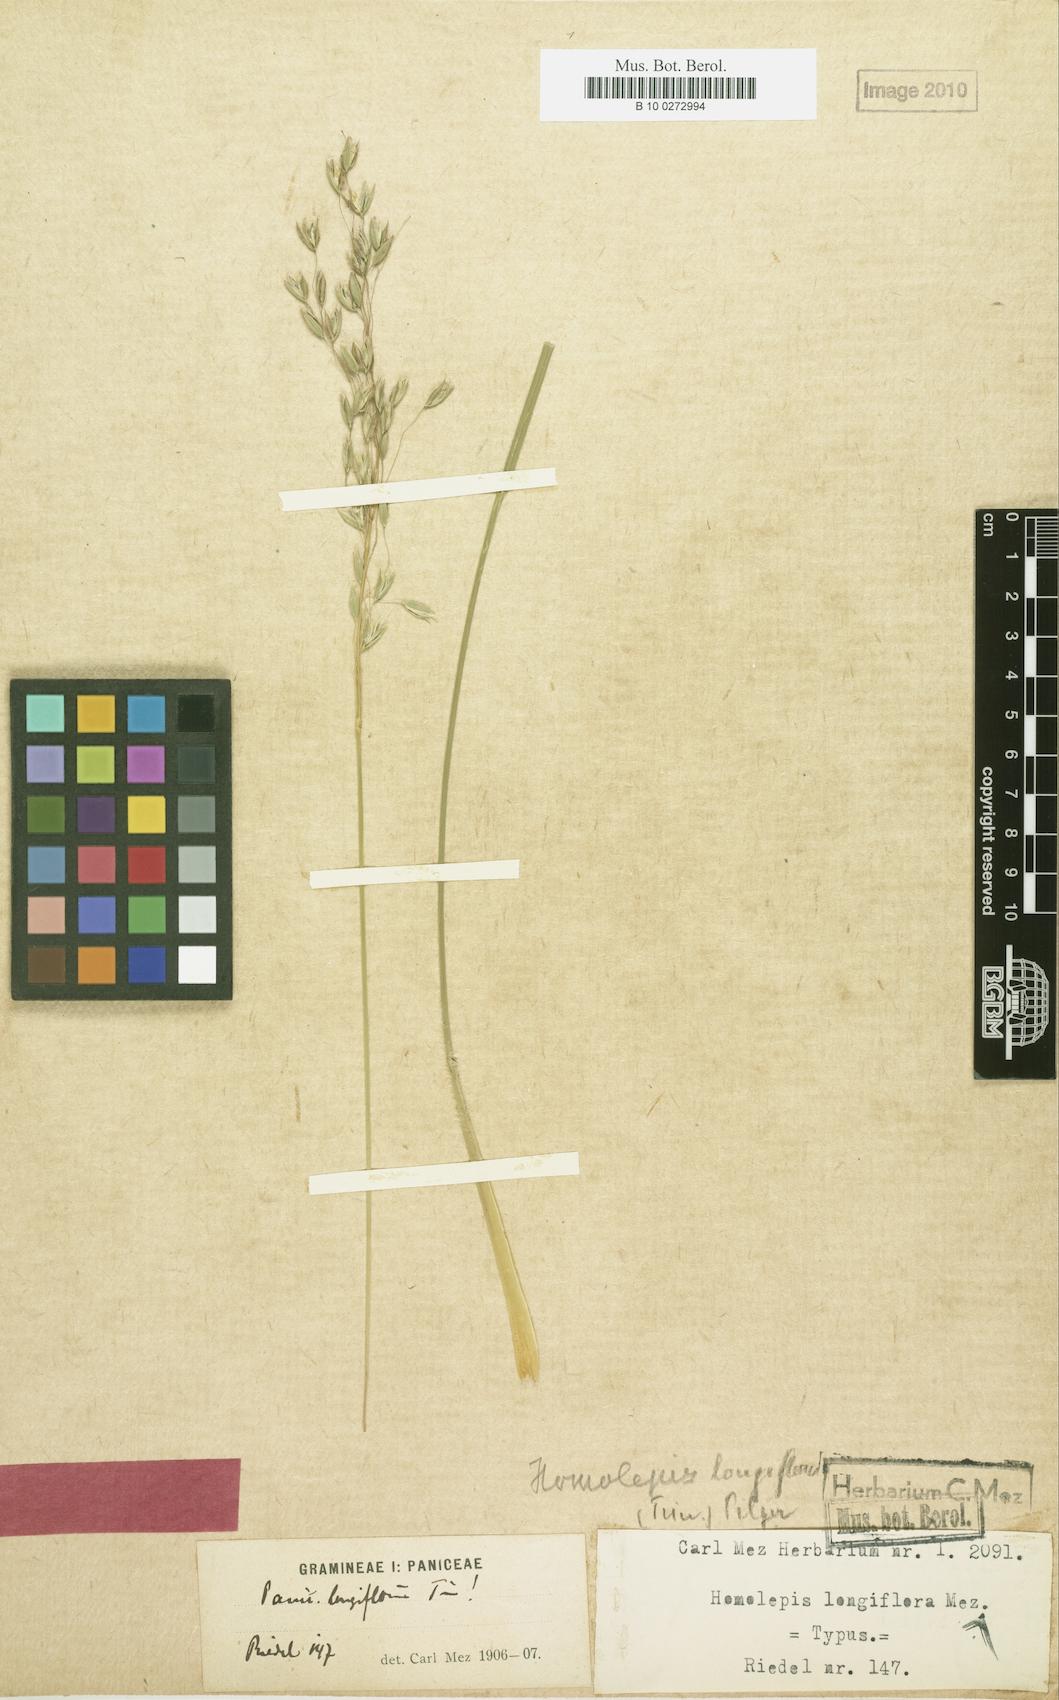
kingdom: Plantae
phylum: Tracheophyta
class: Liliopsida
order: Poales
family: Poaceae
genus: Homolepis
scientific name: Homolepis longispicula
